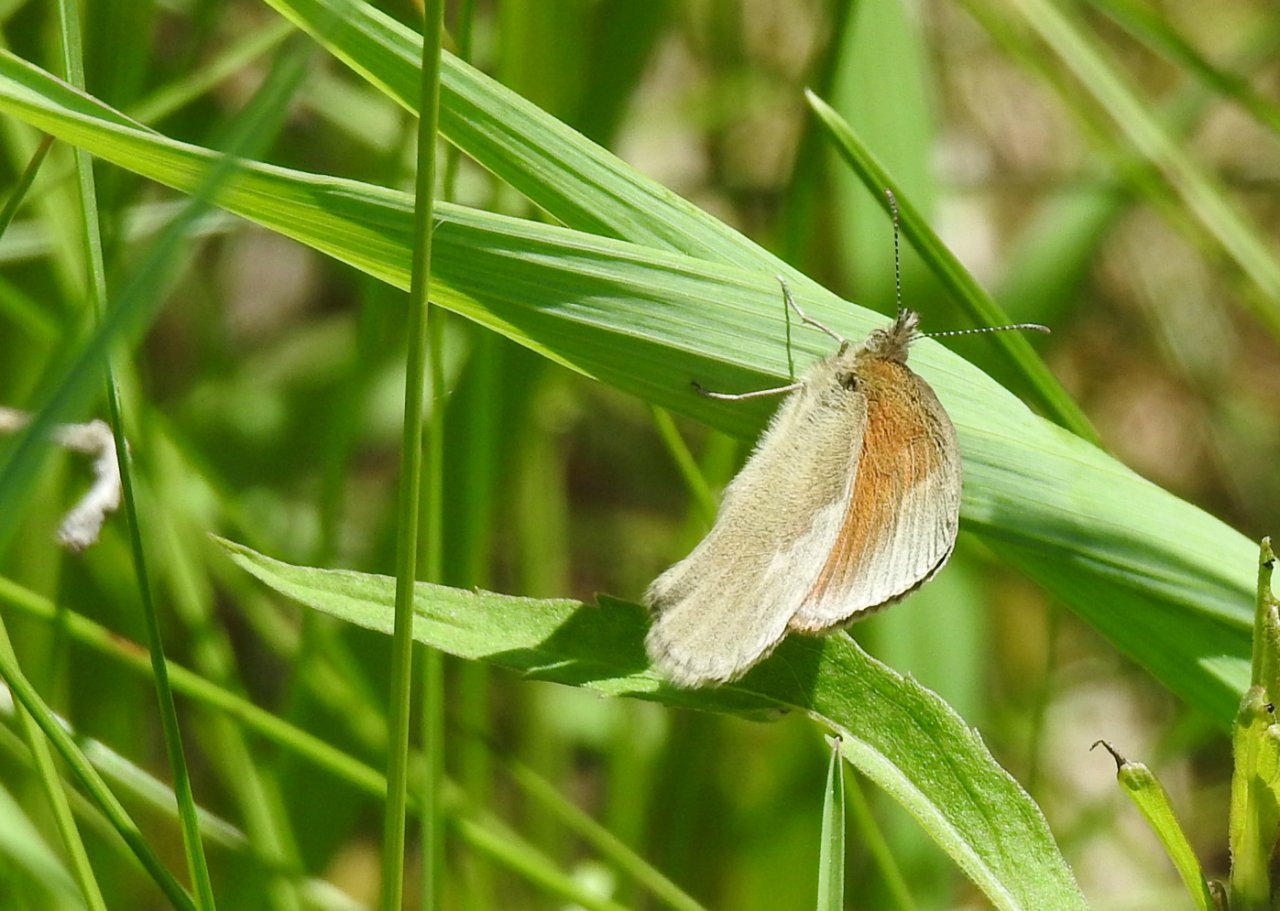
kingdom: Animalia
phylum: Arthropoda
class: Insecta
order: Lepidoptera
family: Nymphalidae
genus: Coenonympha
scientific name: Coenonympha tullia
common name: Large Heath
